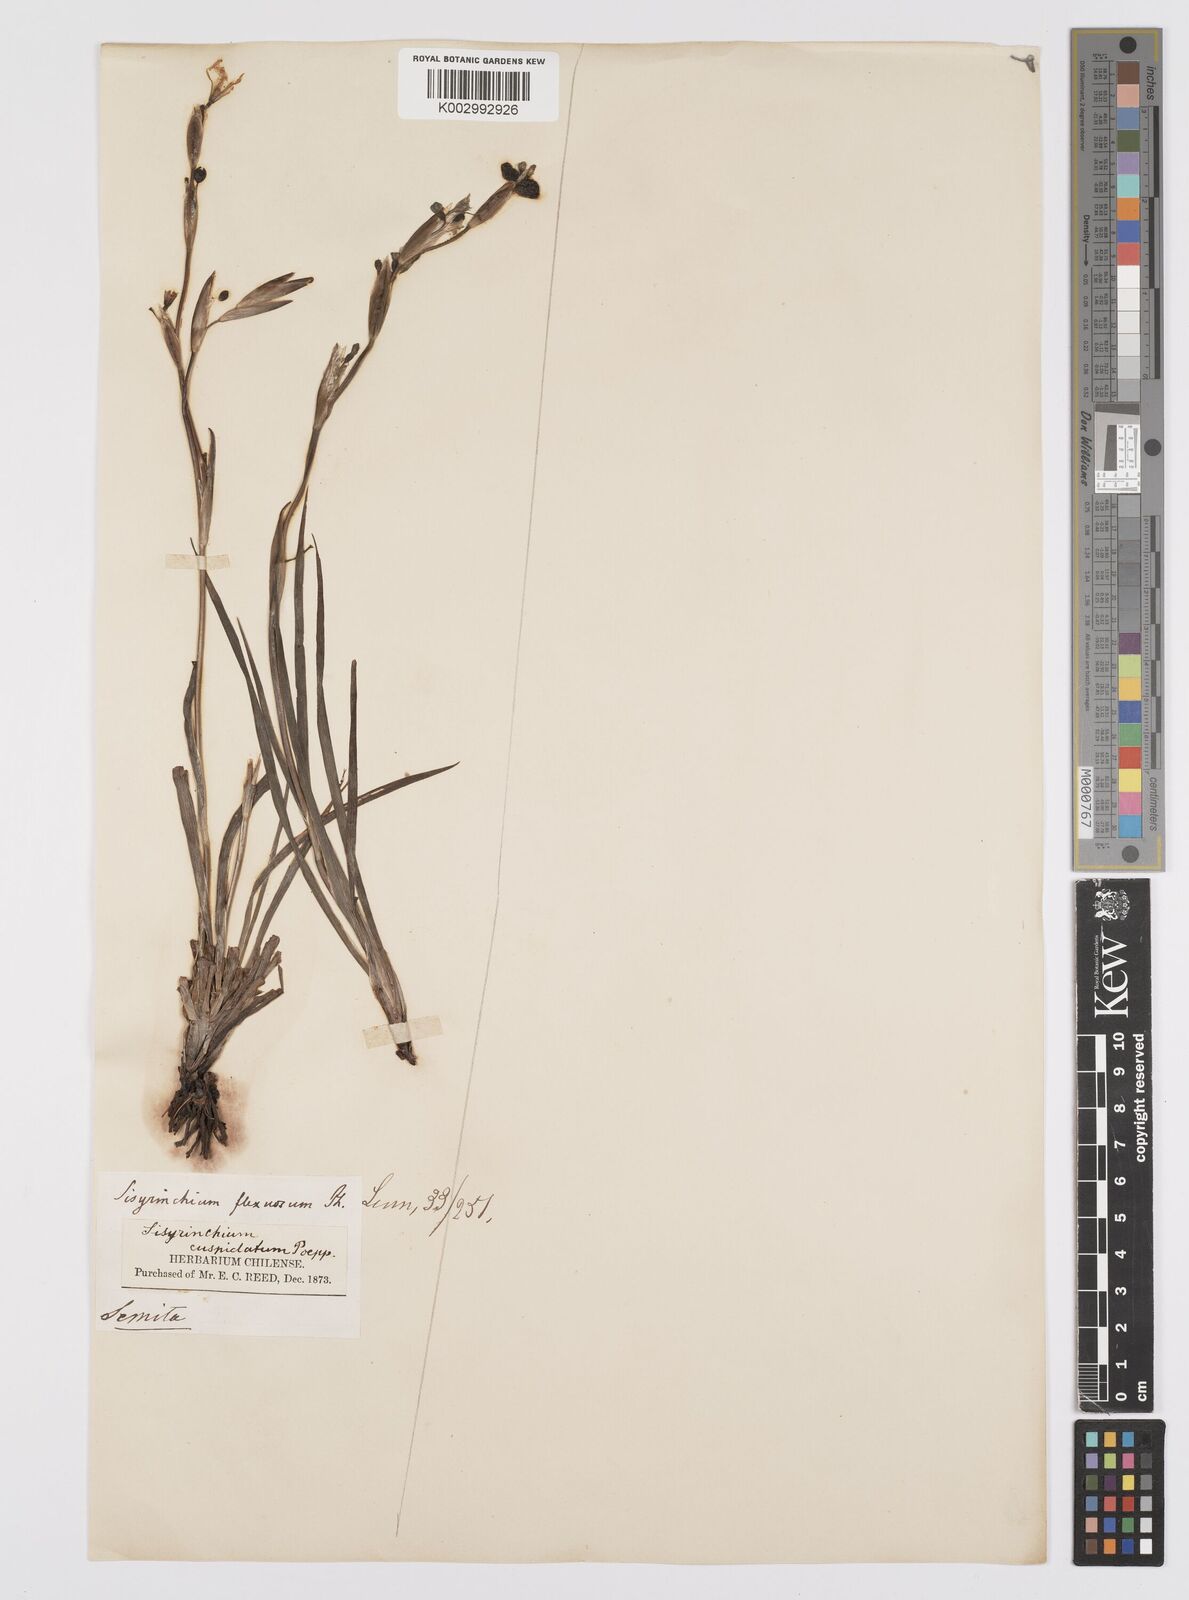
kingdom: Plantae
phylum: Tracheophyta
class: Liliopsida
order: Asparagales
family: Iridaceae
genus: Sisyrinchium
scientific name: Sisyrinchium cuspidatum
